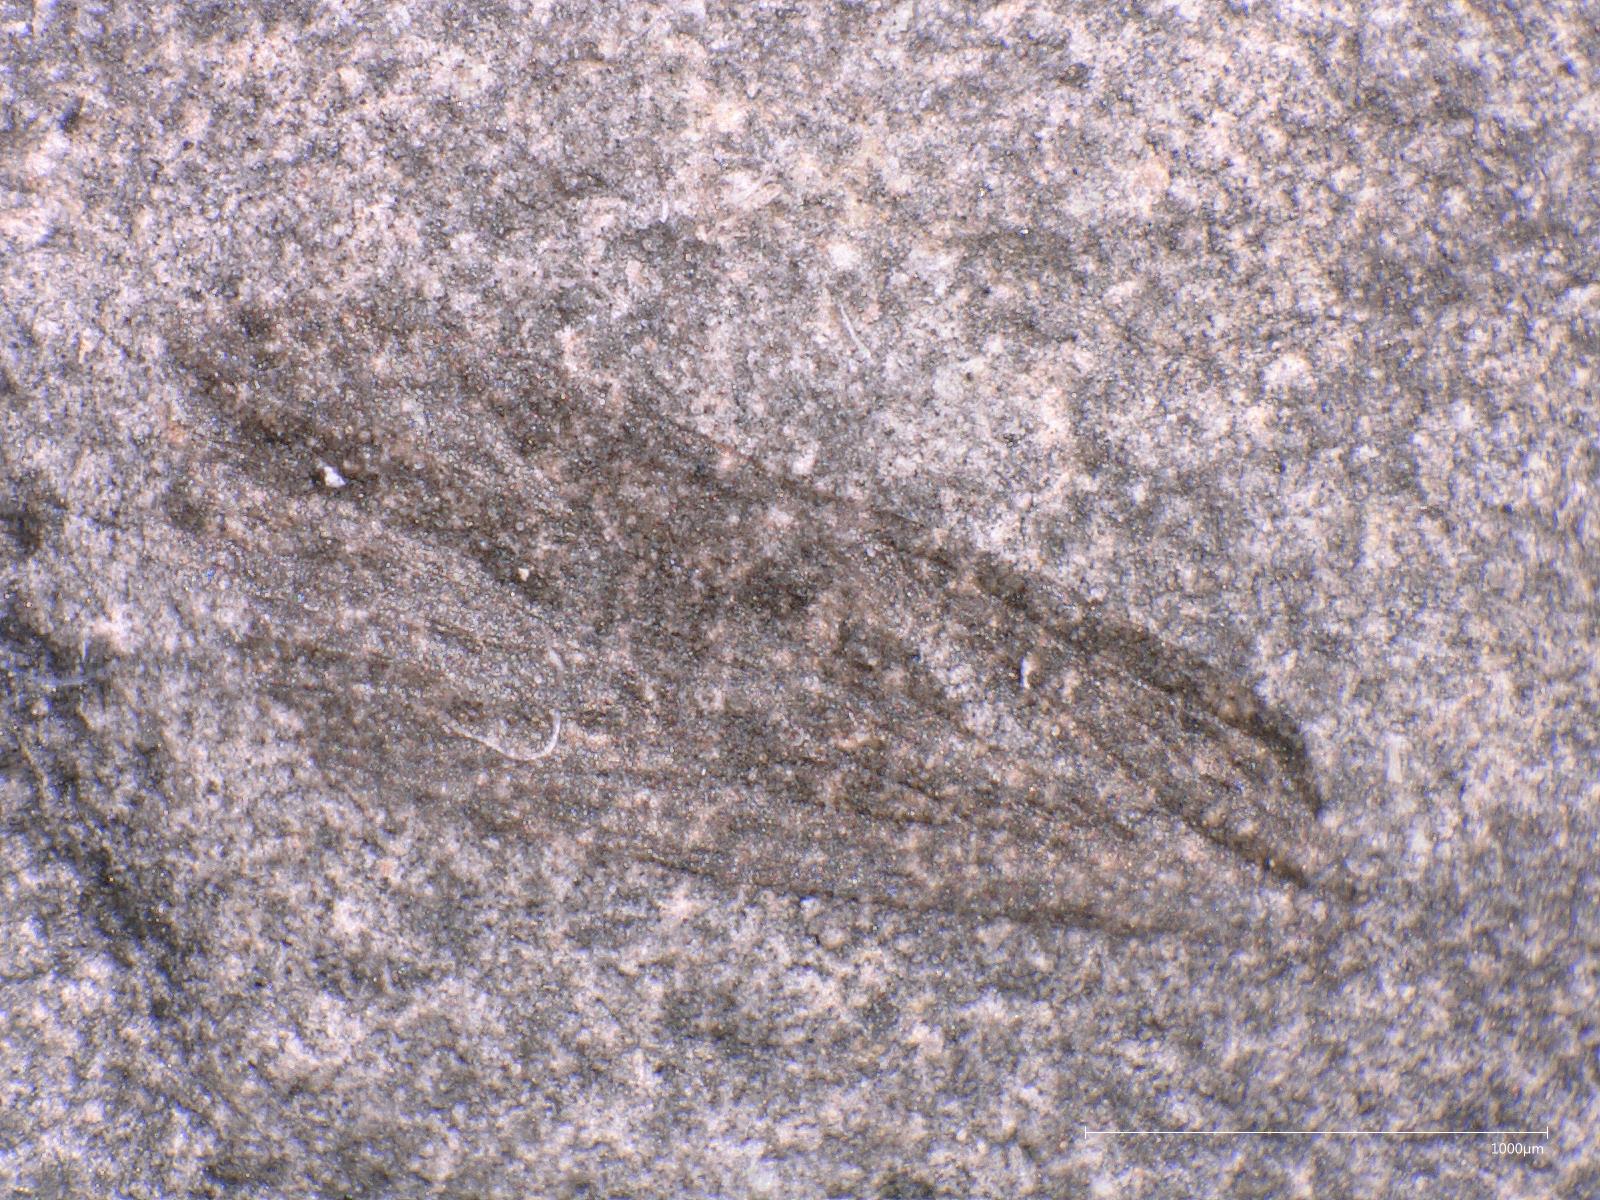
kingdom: Animalia
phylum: Arthropoda
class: Insecta
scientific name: Insecta
